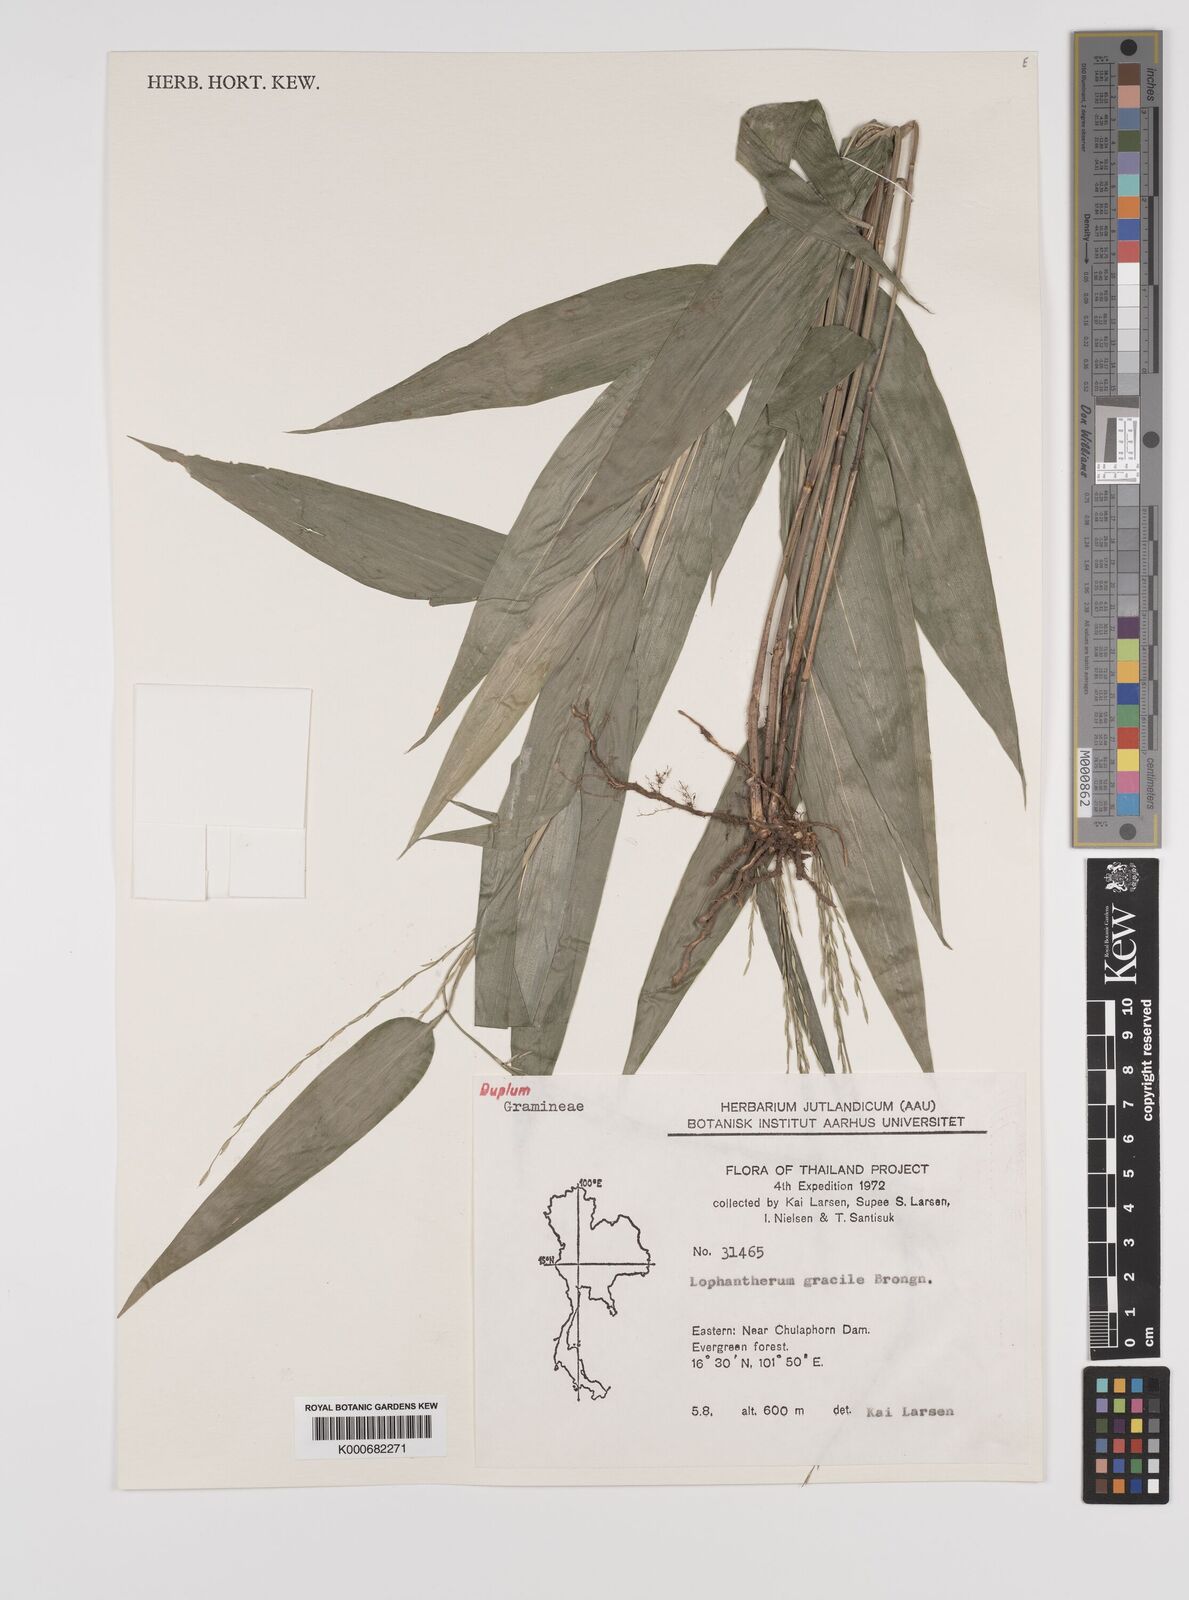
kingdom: Plantae
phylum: Tracheophyta
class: Liliopsida
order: Poales
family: Poaceae
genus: Lophatherum
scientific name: Lophatherum gracile
